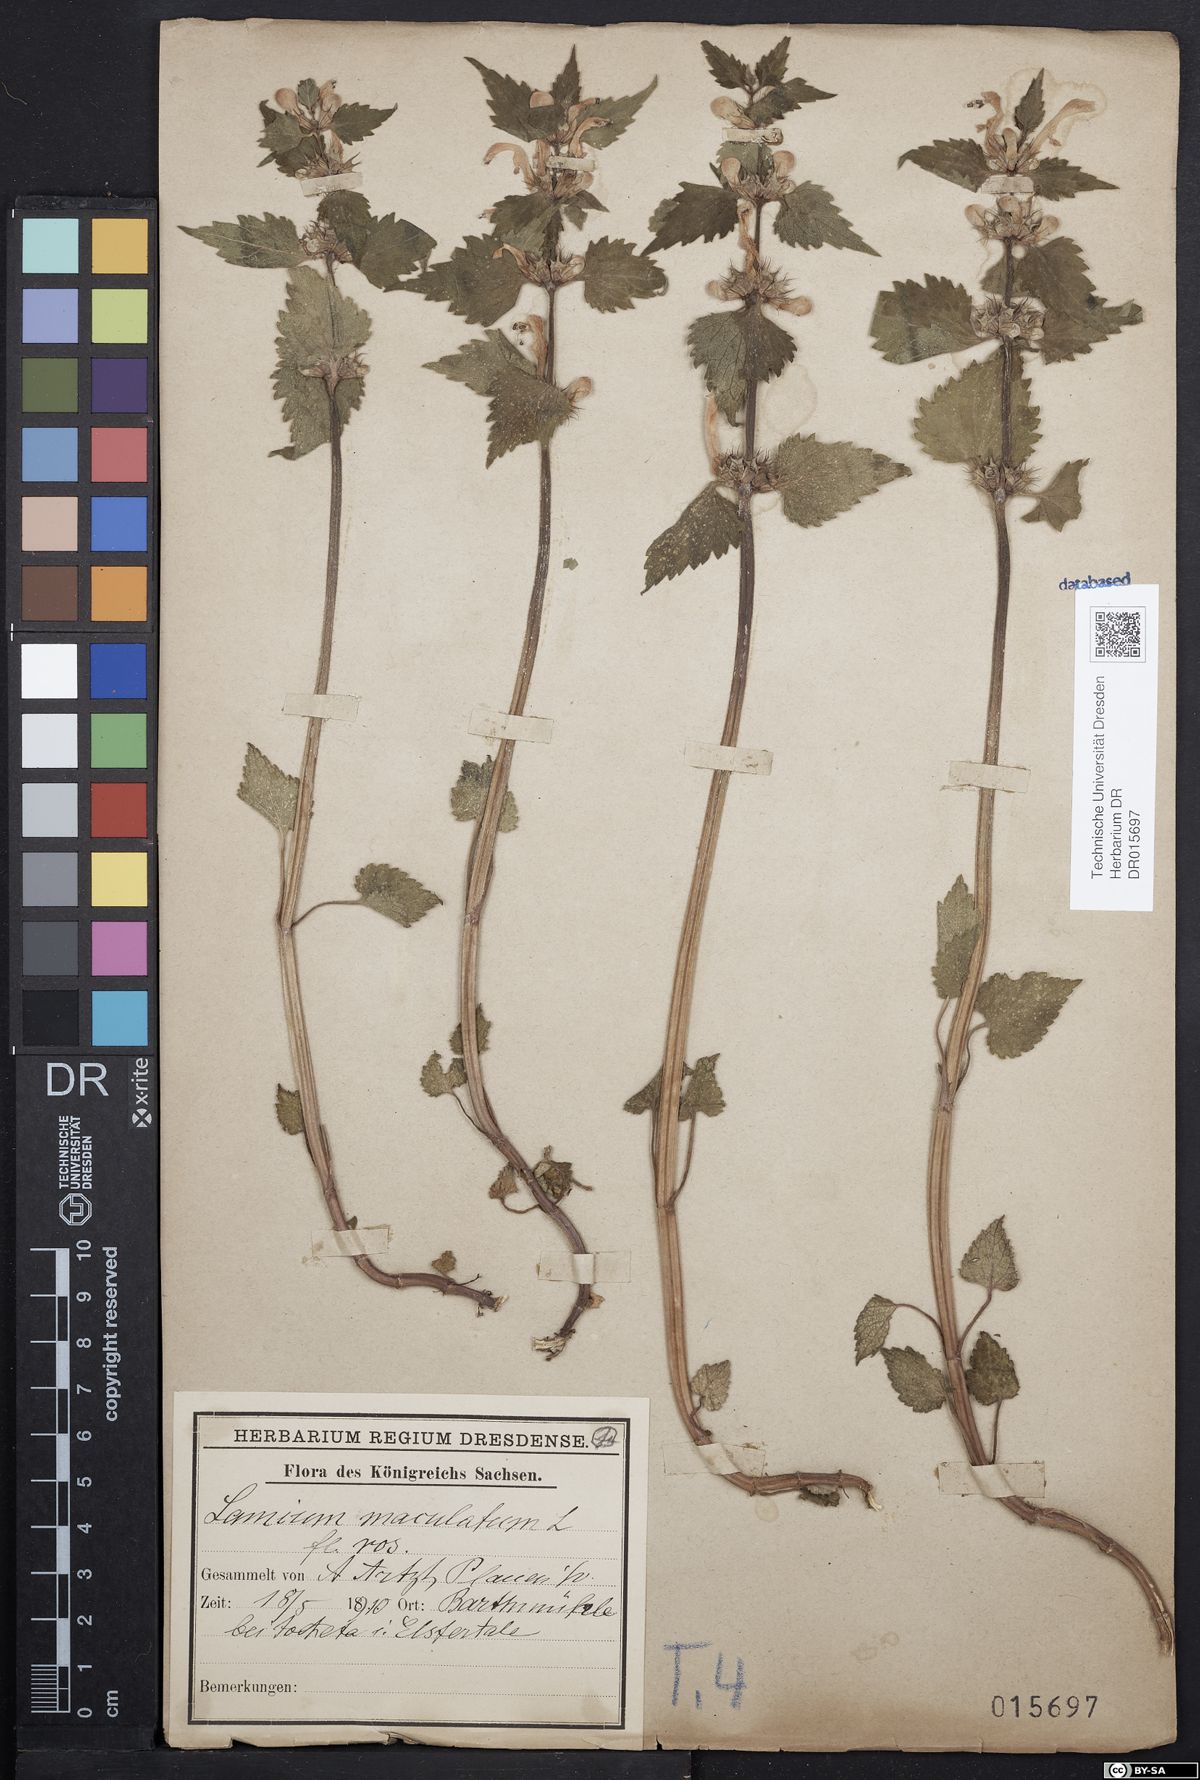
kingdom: Plantae
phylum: Tracheophyta
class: Magnoliopsida
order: Lamiales
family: Lamiaceae
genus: Lamium
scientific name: Lamium maculatum
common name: Spotted dead-nettle
